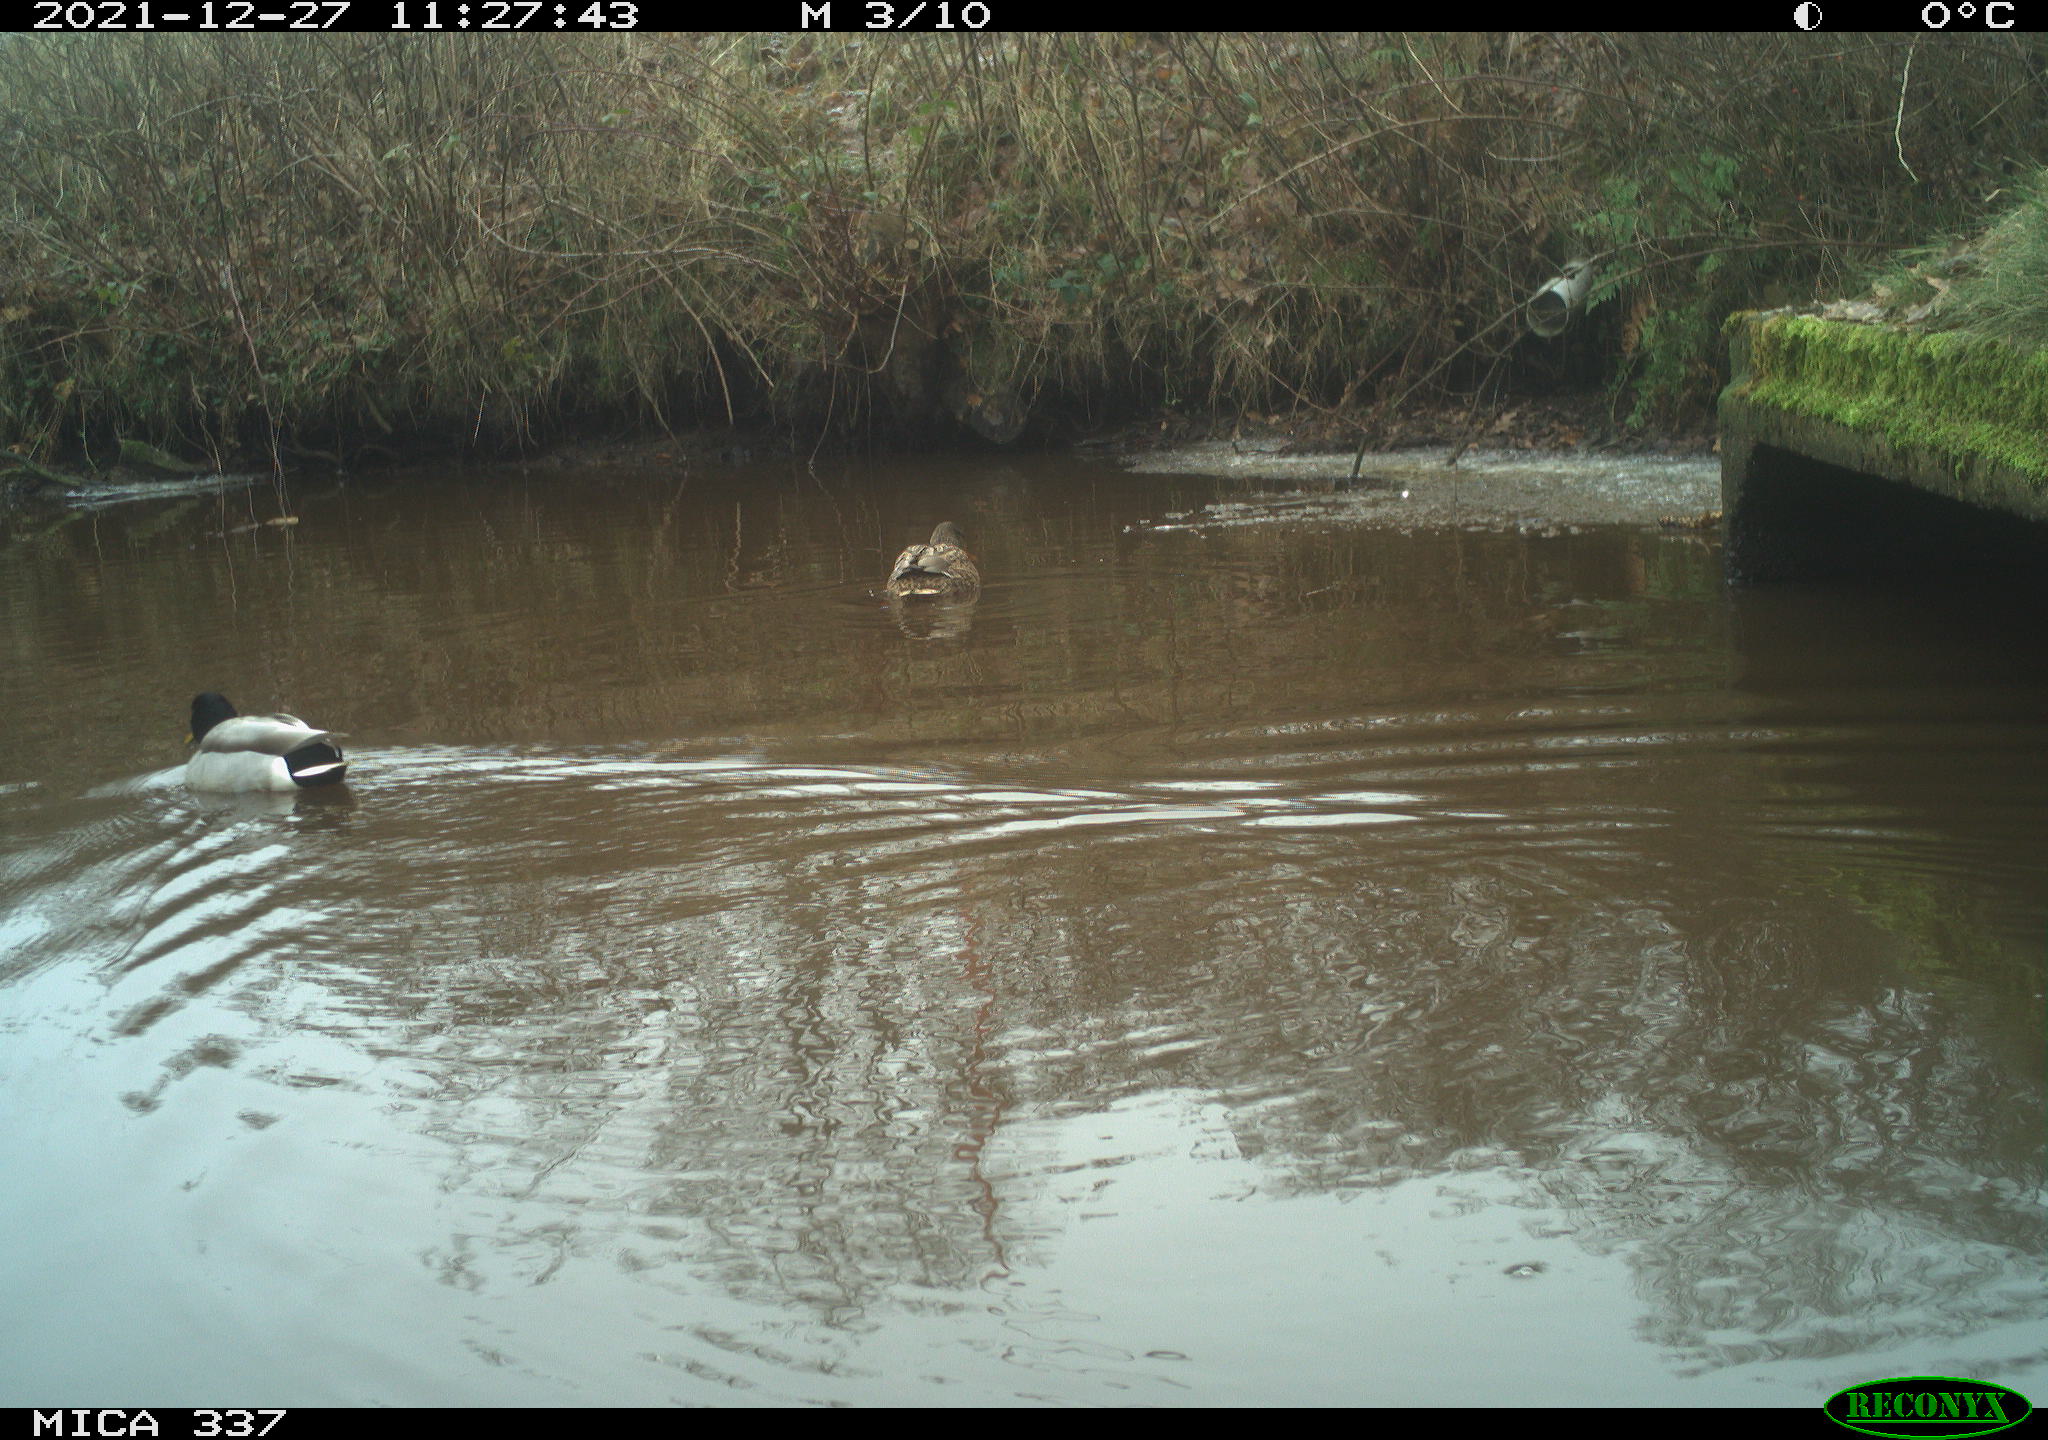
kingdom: Animalia
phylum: Chordata
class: Aves
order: Anseriformes
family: Anatidae
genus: Anas
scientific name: Anas platyrhynchos
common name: Mallard
